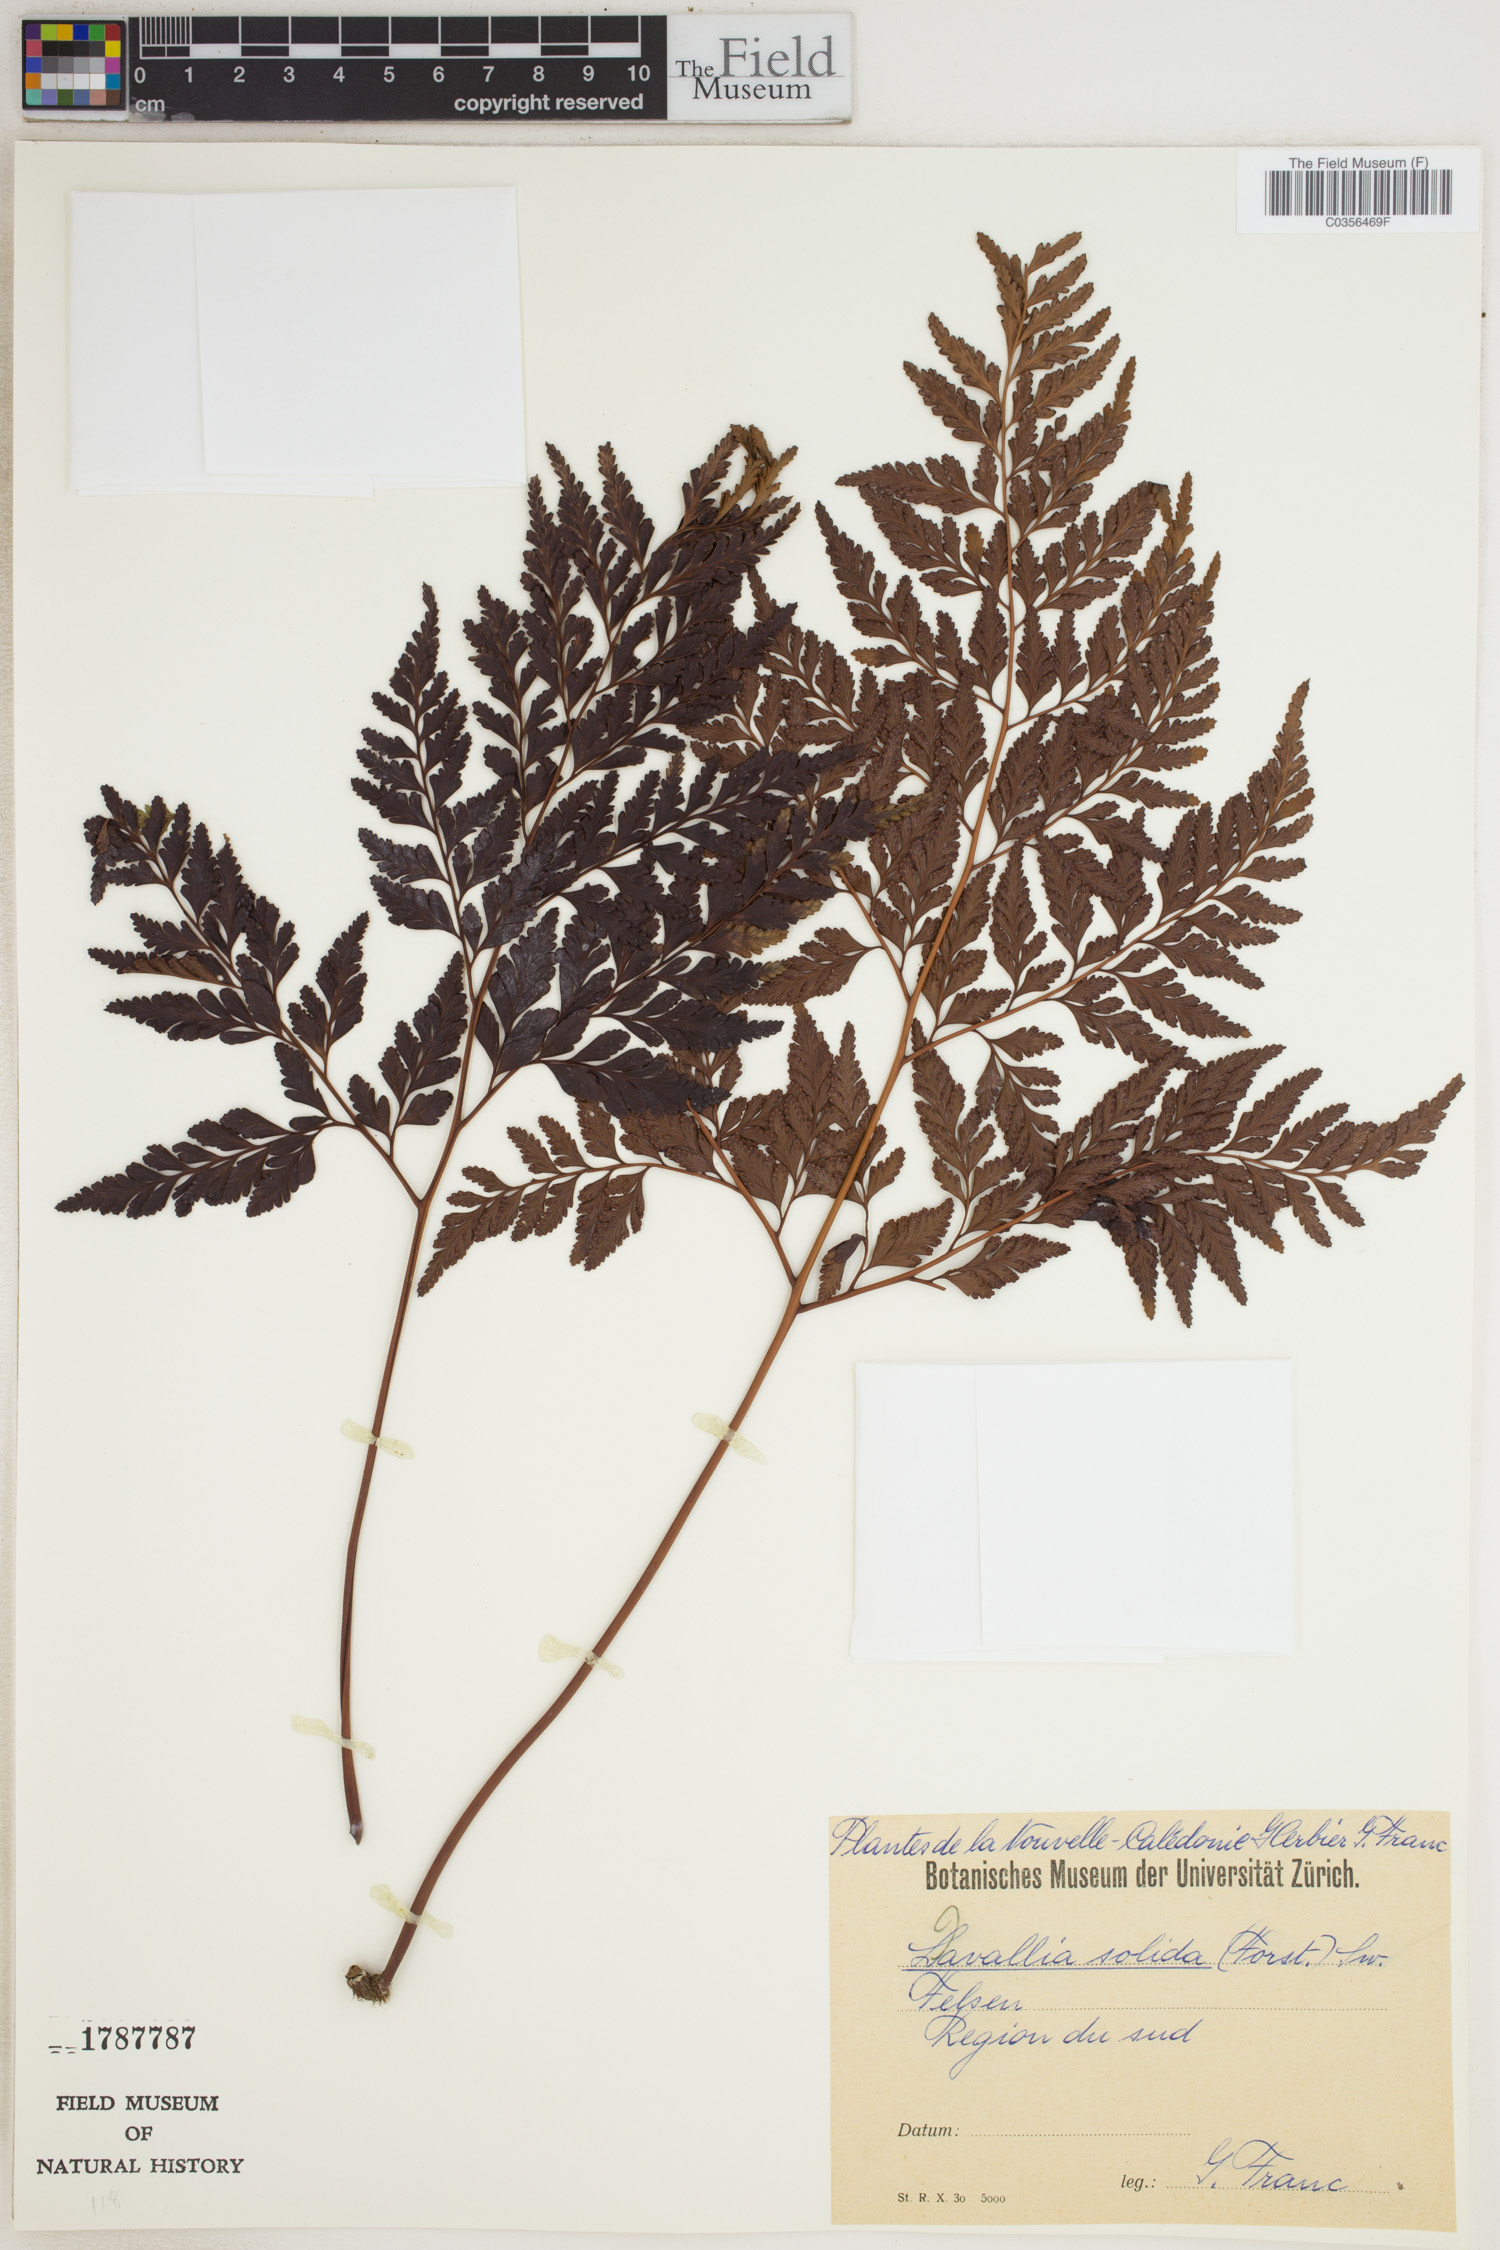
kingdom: Plantae
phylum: Tracheophyta
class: Polypodiopsida
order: Polypodiales
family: Davalliaceae
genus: Davallia
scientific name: Davallia solida
